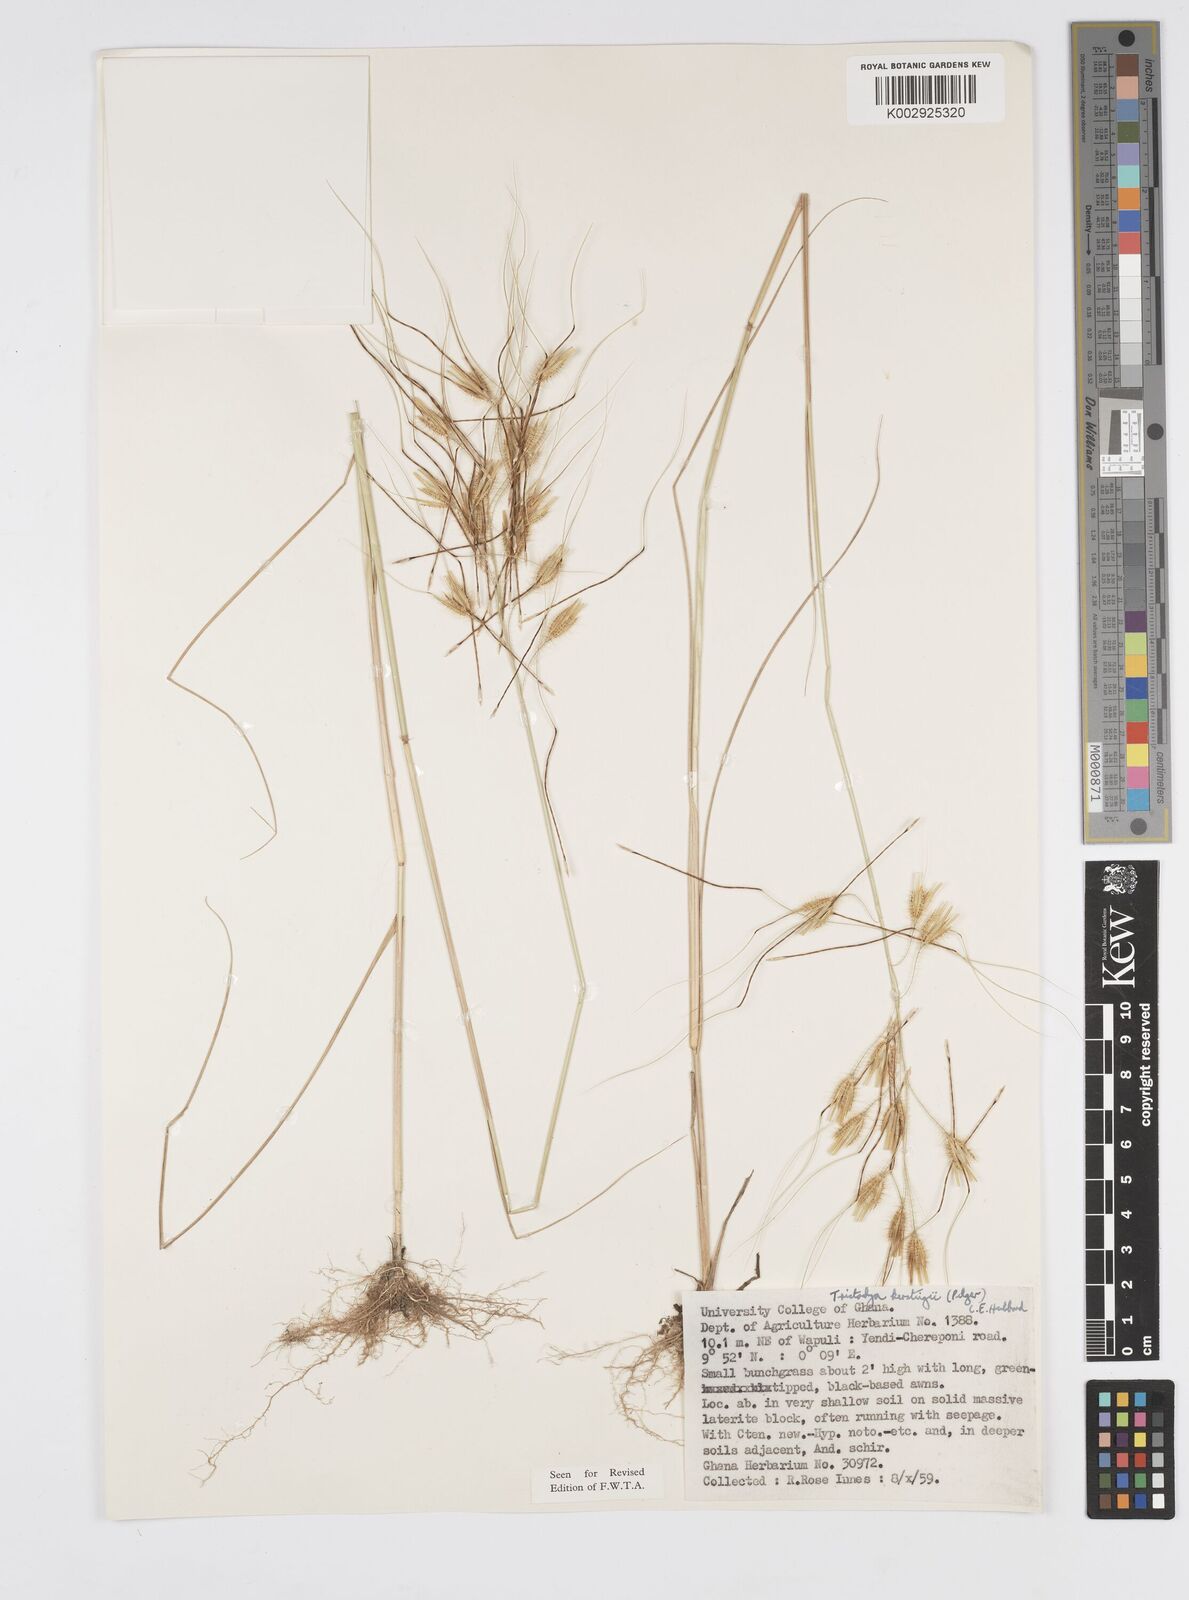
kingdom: Plantae
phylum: Tracheophyta
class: Liliopsida
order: Poales
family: Poaceae
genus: Loudetiopsis
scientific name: Loudetiopsis kerstingii
